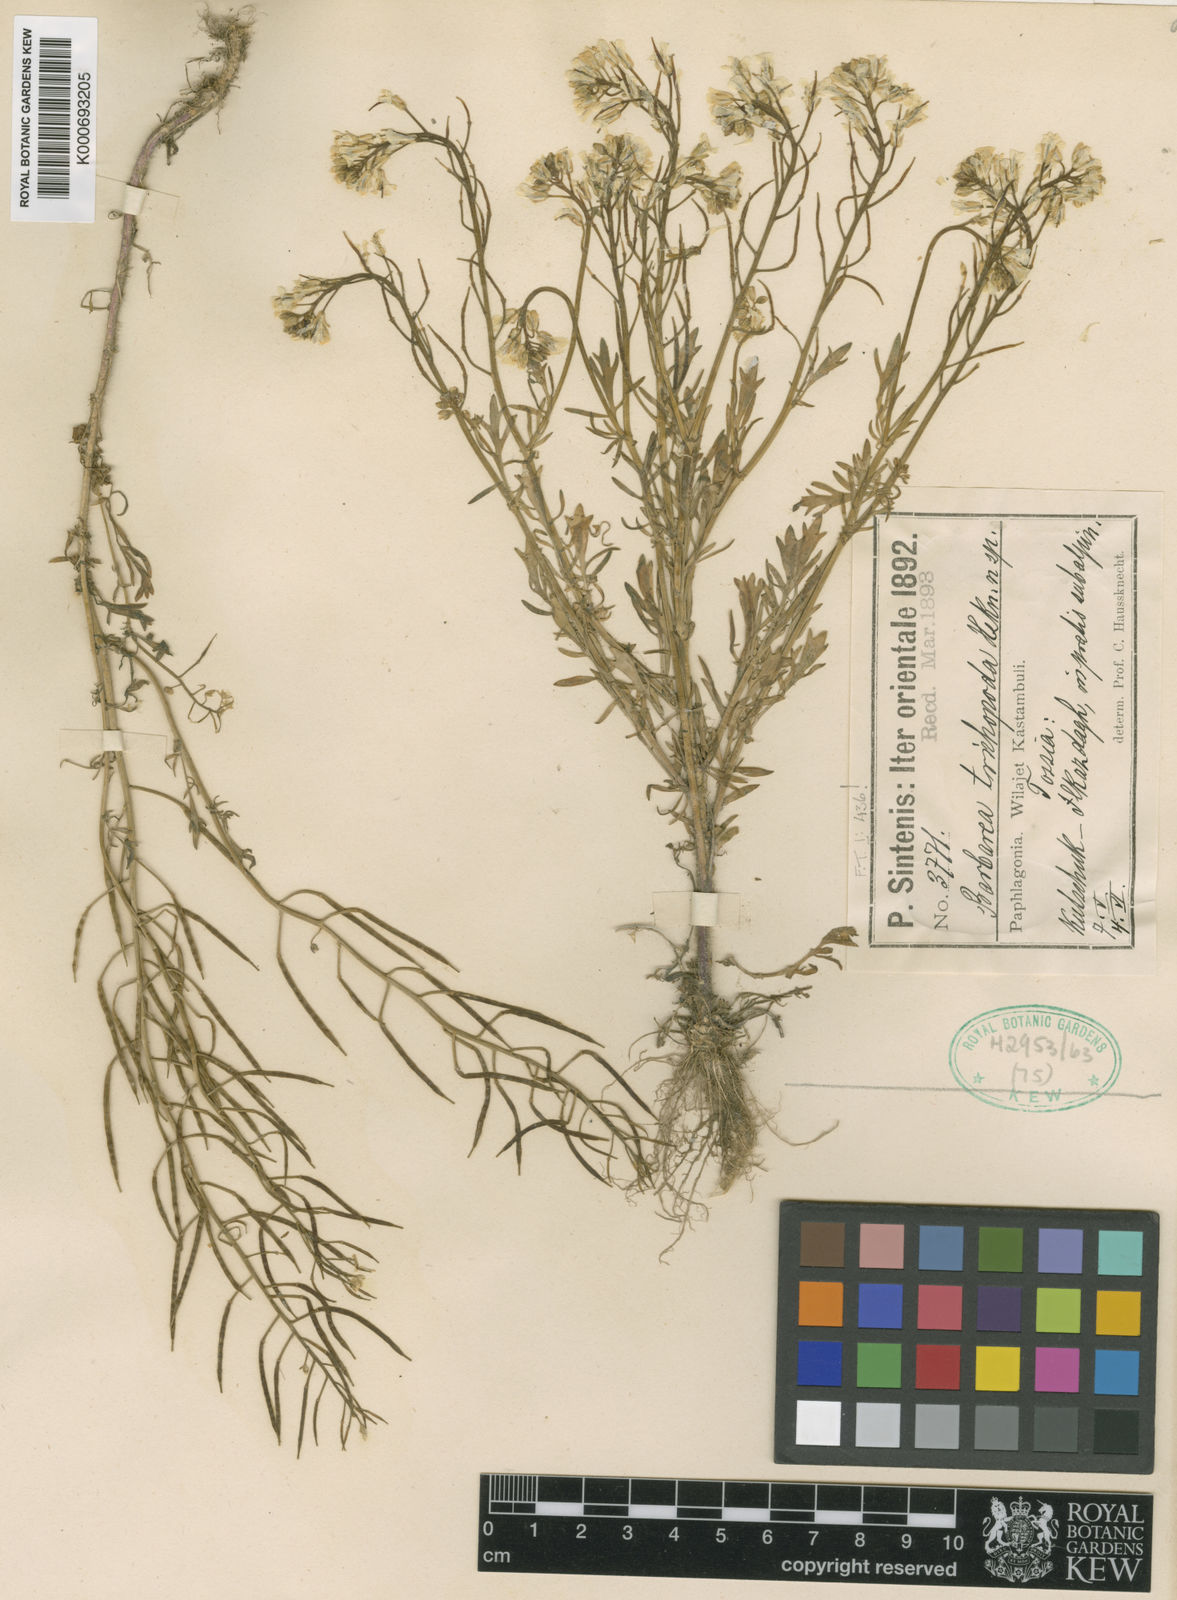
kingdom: Plantae
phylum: Tracheophyta
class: Magnoliopsida
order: Brassicales
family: Brassicaceae
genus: Barbarea
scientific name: Barbarea trichopoda
